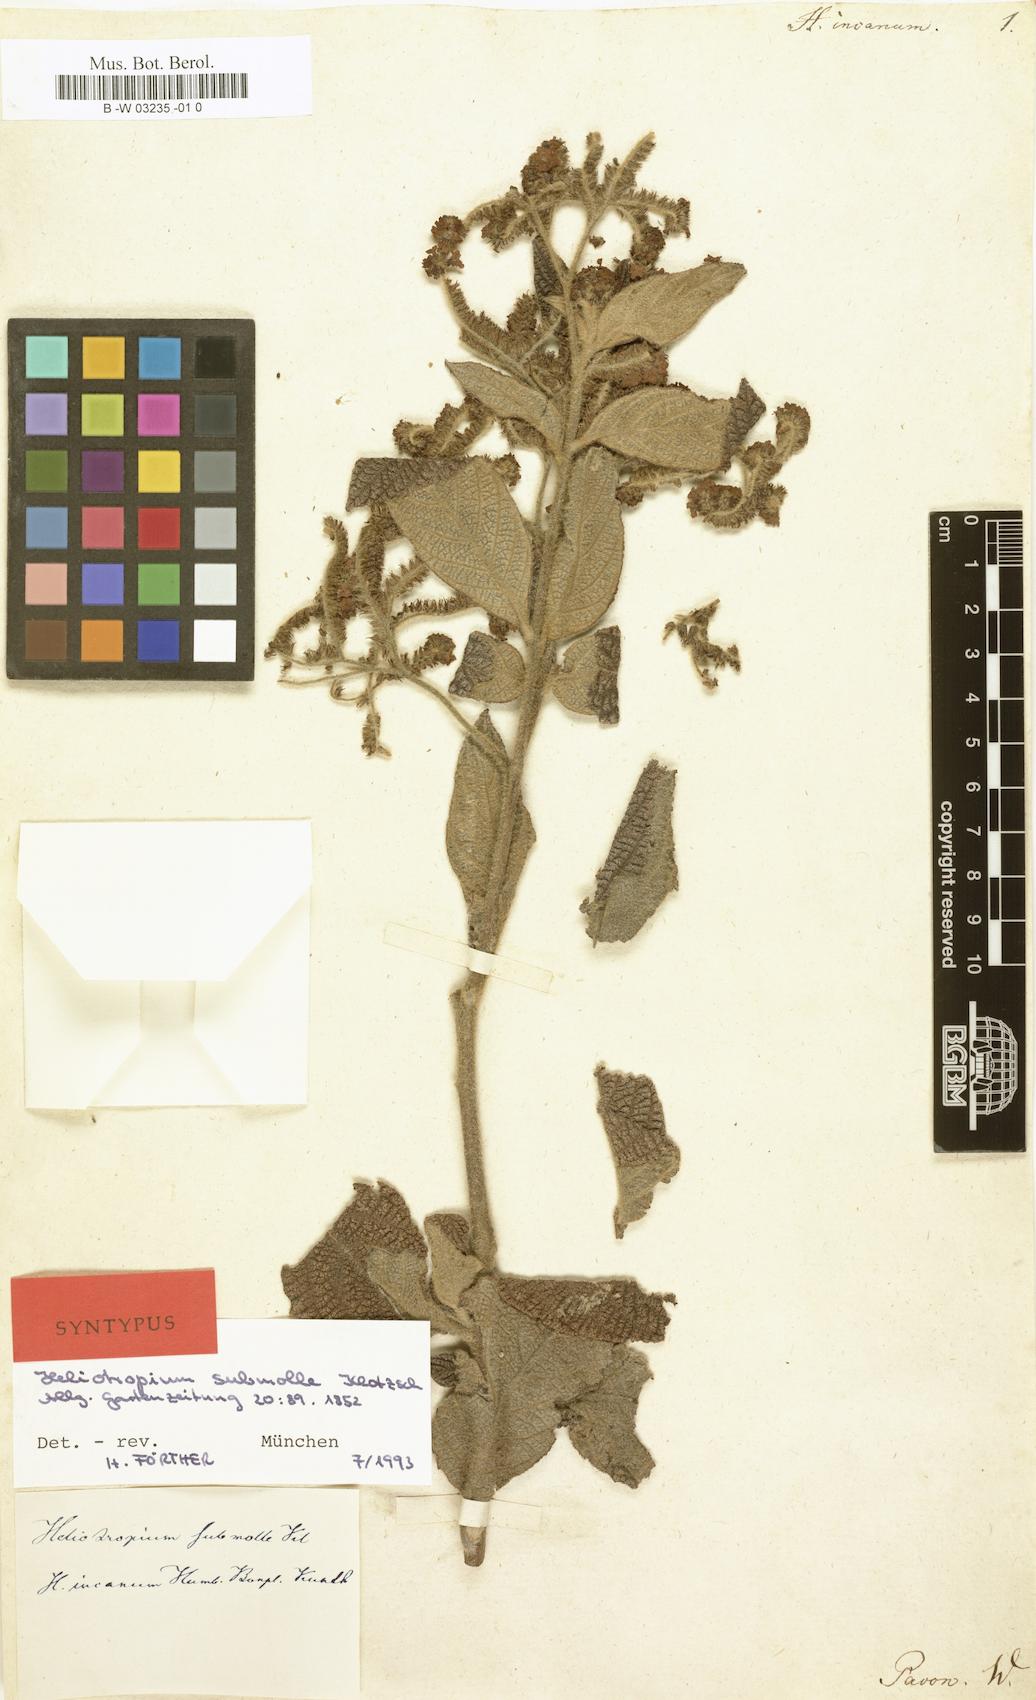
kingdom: Plantae
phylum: Tracheophyta
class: Magnoliopsida
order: Boraginales
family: Heliotropiaceae
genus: Heliotropium
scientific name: Heliotropium incanum
